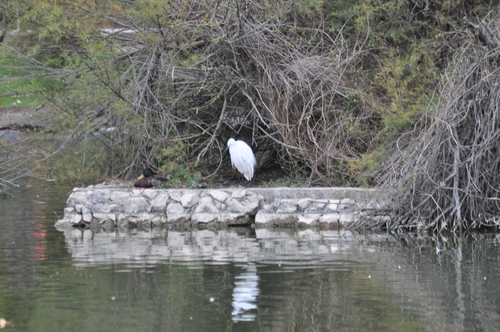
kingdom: Animalia
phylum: Chordata
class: Aves
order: Pelecaniformes
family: Ardeidae
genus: Egretta
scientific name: Egretta garzetta
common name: Little egret
